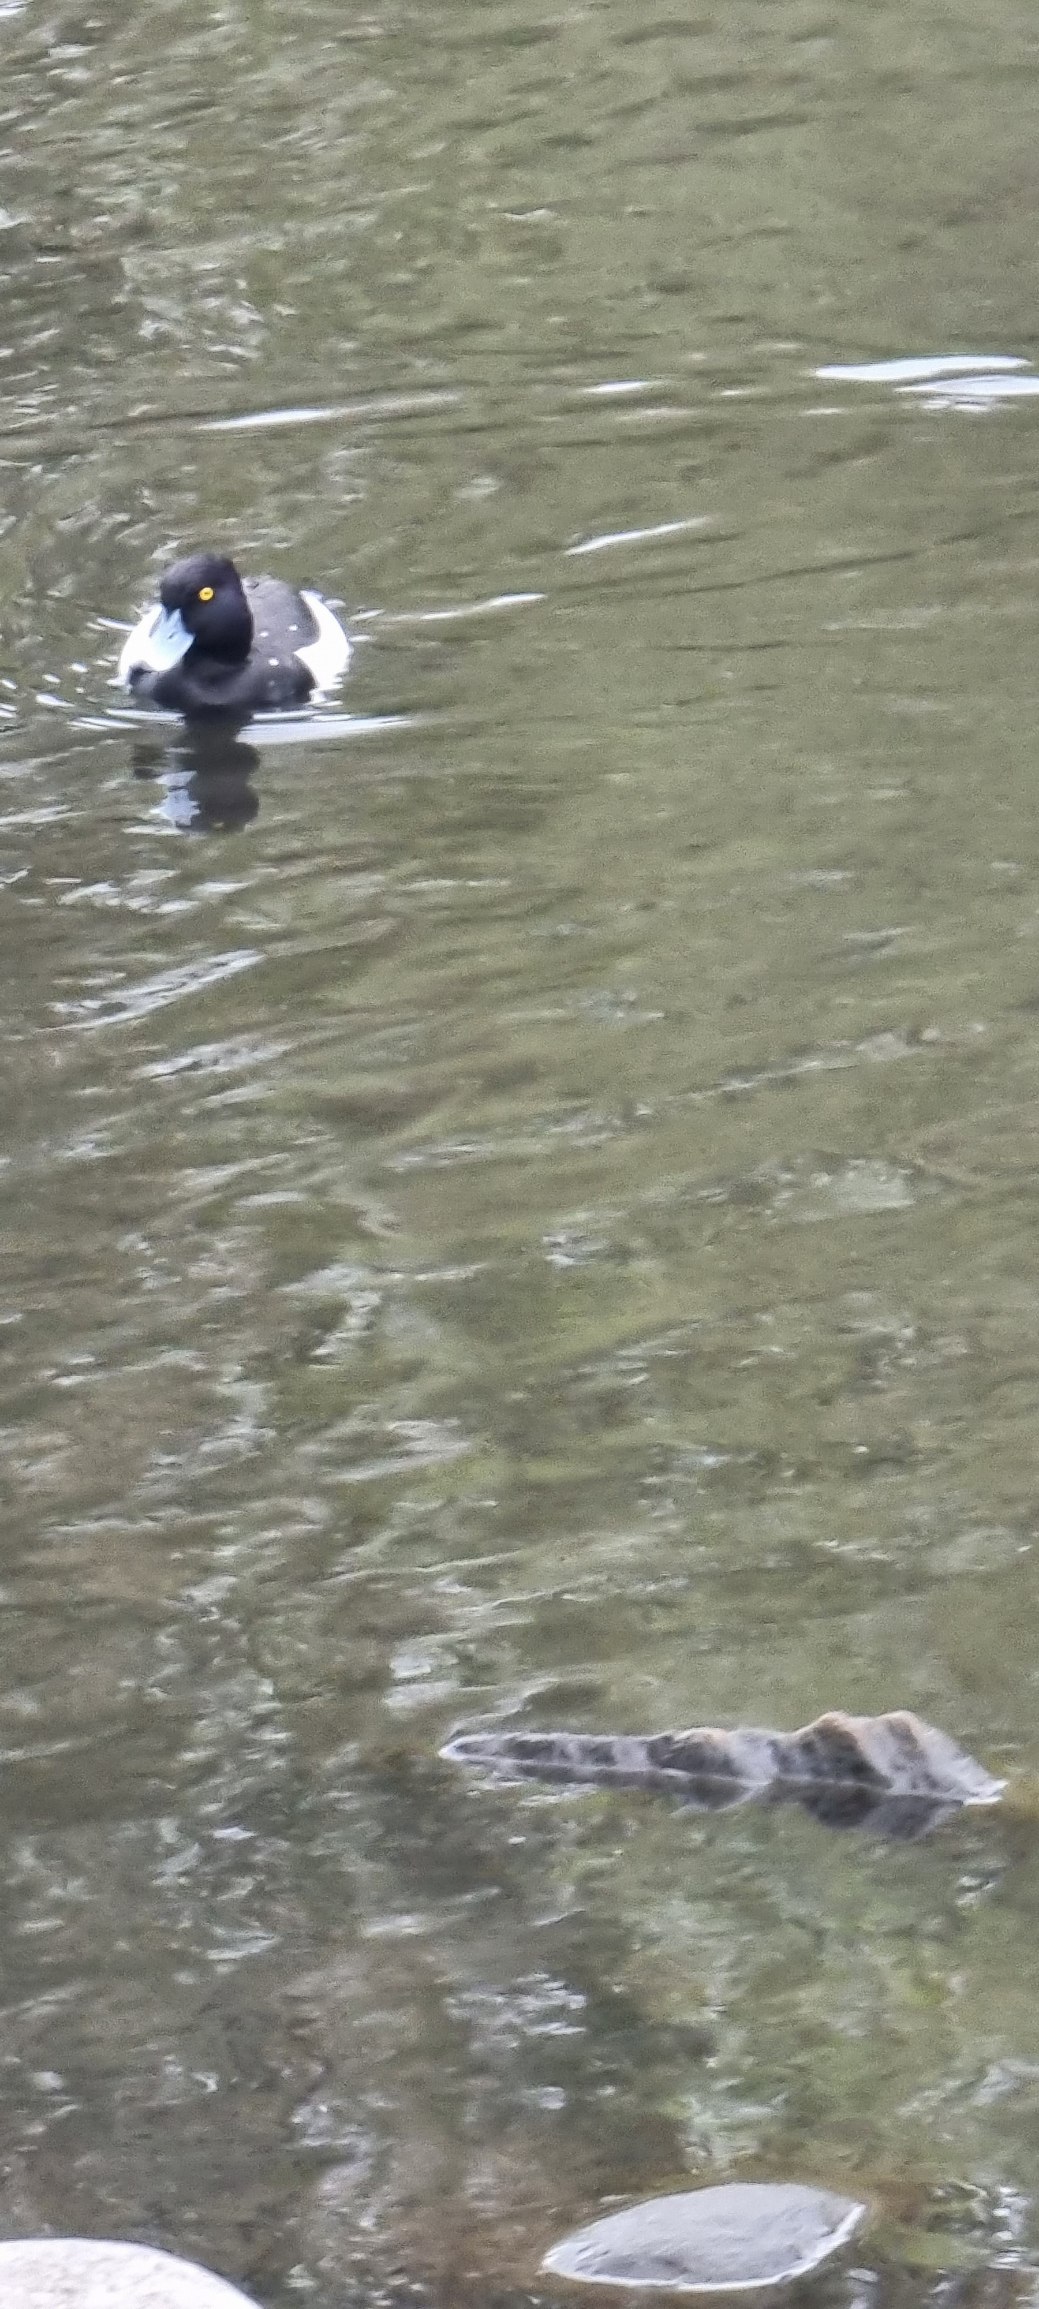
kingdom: Animalia
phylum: Chordata
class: Aves
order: Anseriformes
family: Anatidae
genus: Aythya
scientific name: Aythya fuligula
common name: Troldand
